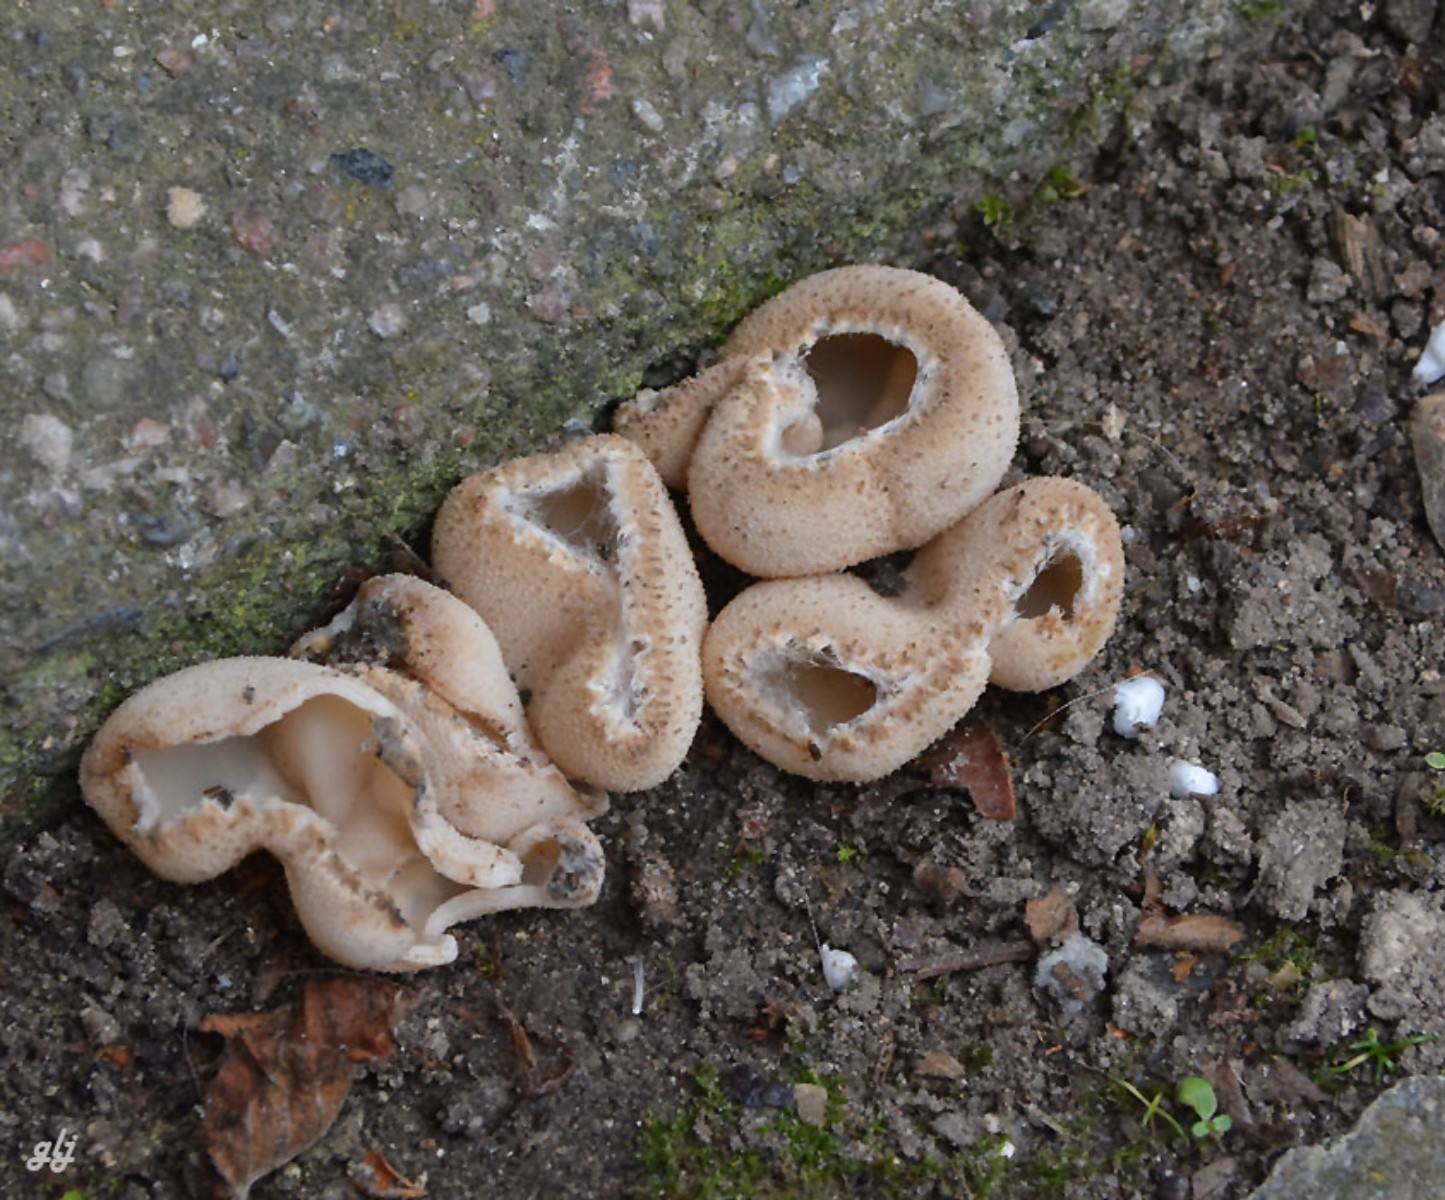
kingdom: Fungi
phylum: Ascomycota
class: Pezizomycetes
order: Pezizales
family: Pyronemataceae
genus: Tarzetta
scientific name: Tarzetta cupularis
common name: gulbrun pokalbæger
